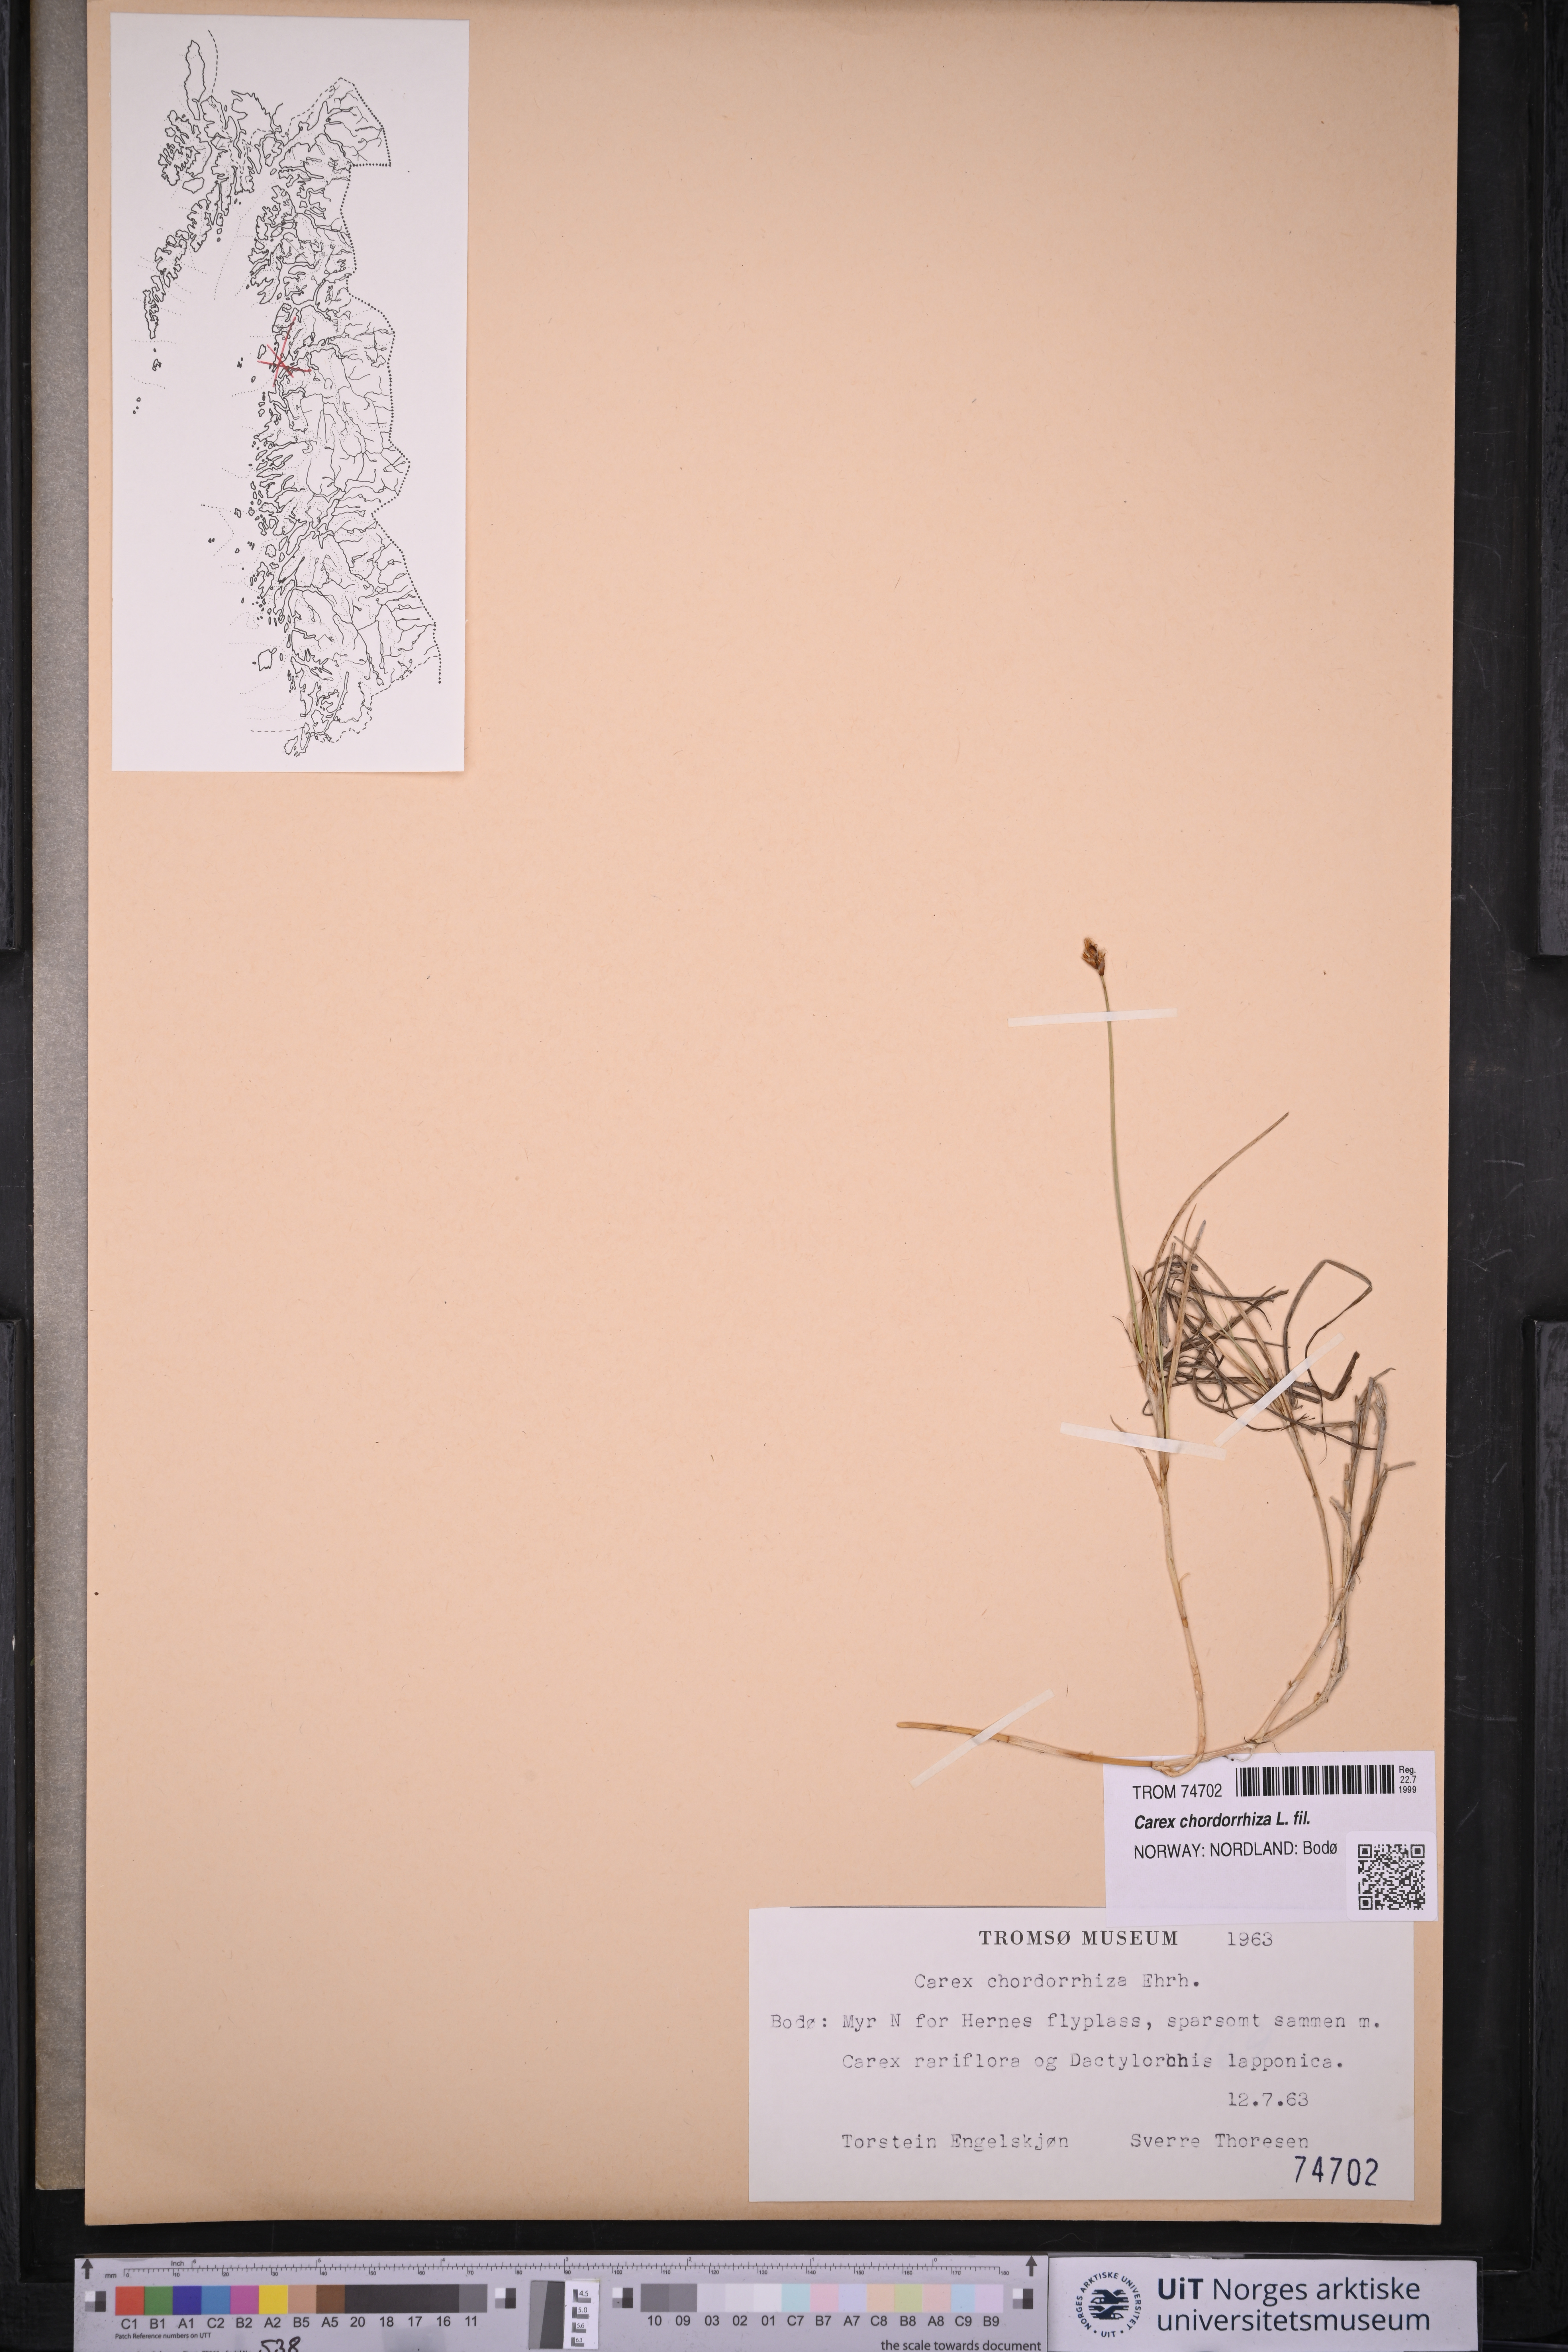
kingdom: Plantae
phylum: Tracheophyta
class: Liliopsida
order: Poales
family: Cyperaceae
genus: Carex
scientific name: Carex chordorrhiza
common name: String sedge
